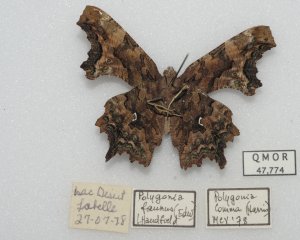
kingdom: Animalia
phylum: Arthropoda
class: Insecta
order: Lepidoptera
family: Nymphalidae
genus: Polygonia
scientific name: Polygonia faunus
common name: Green Comma
